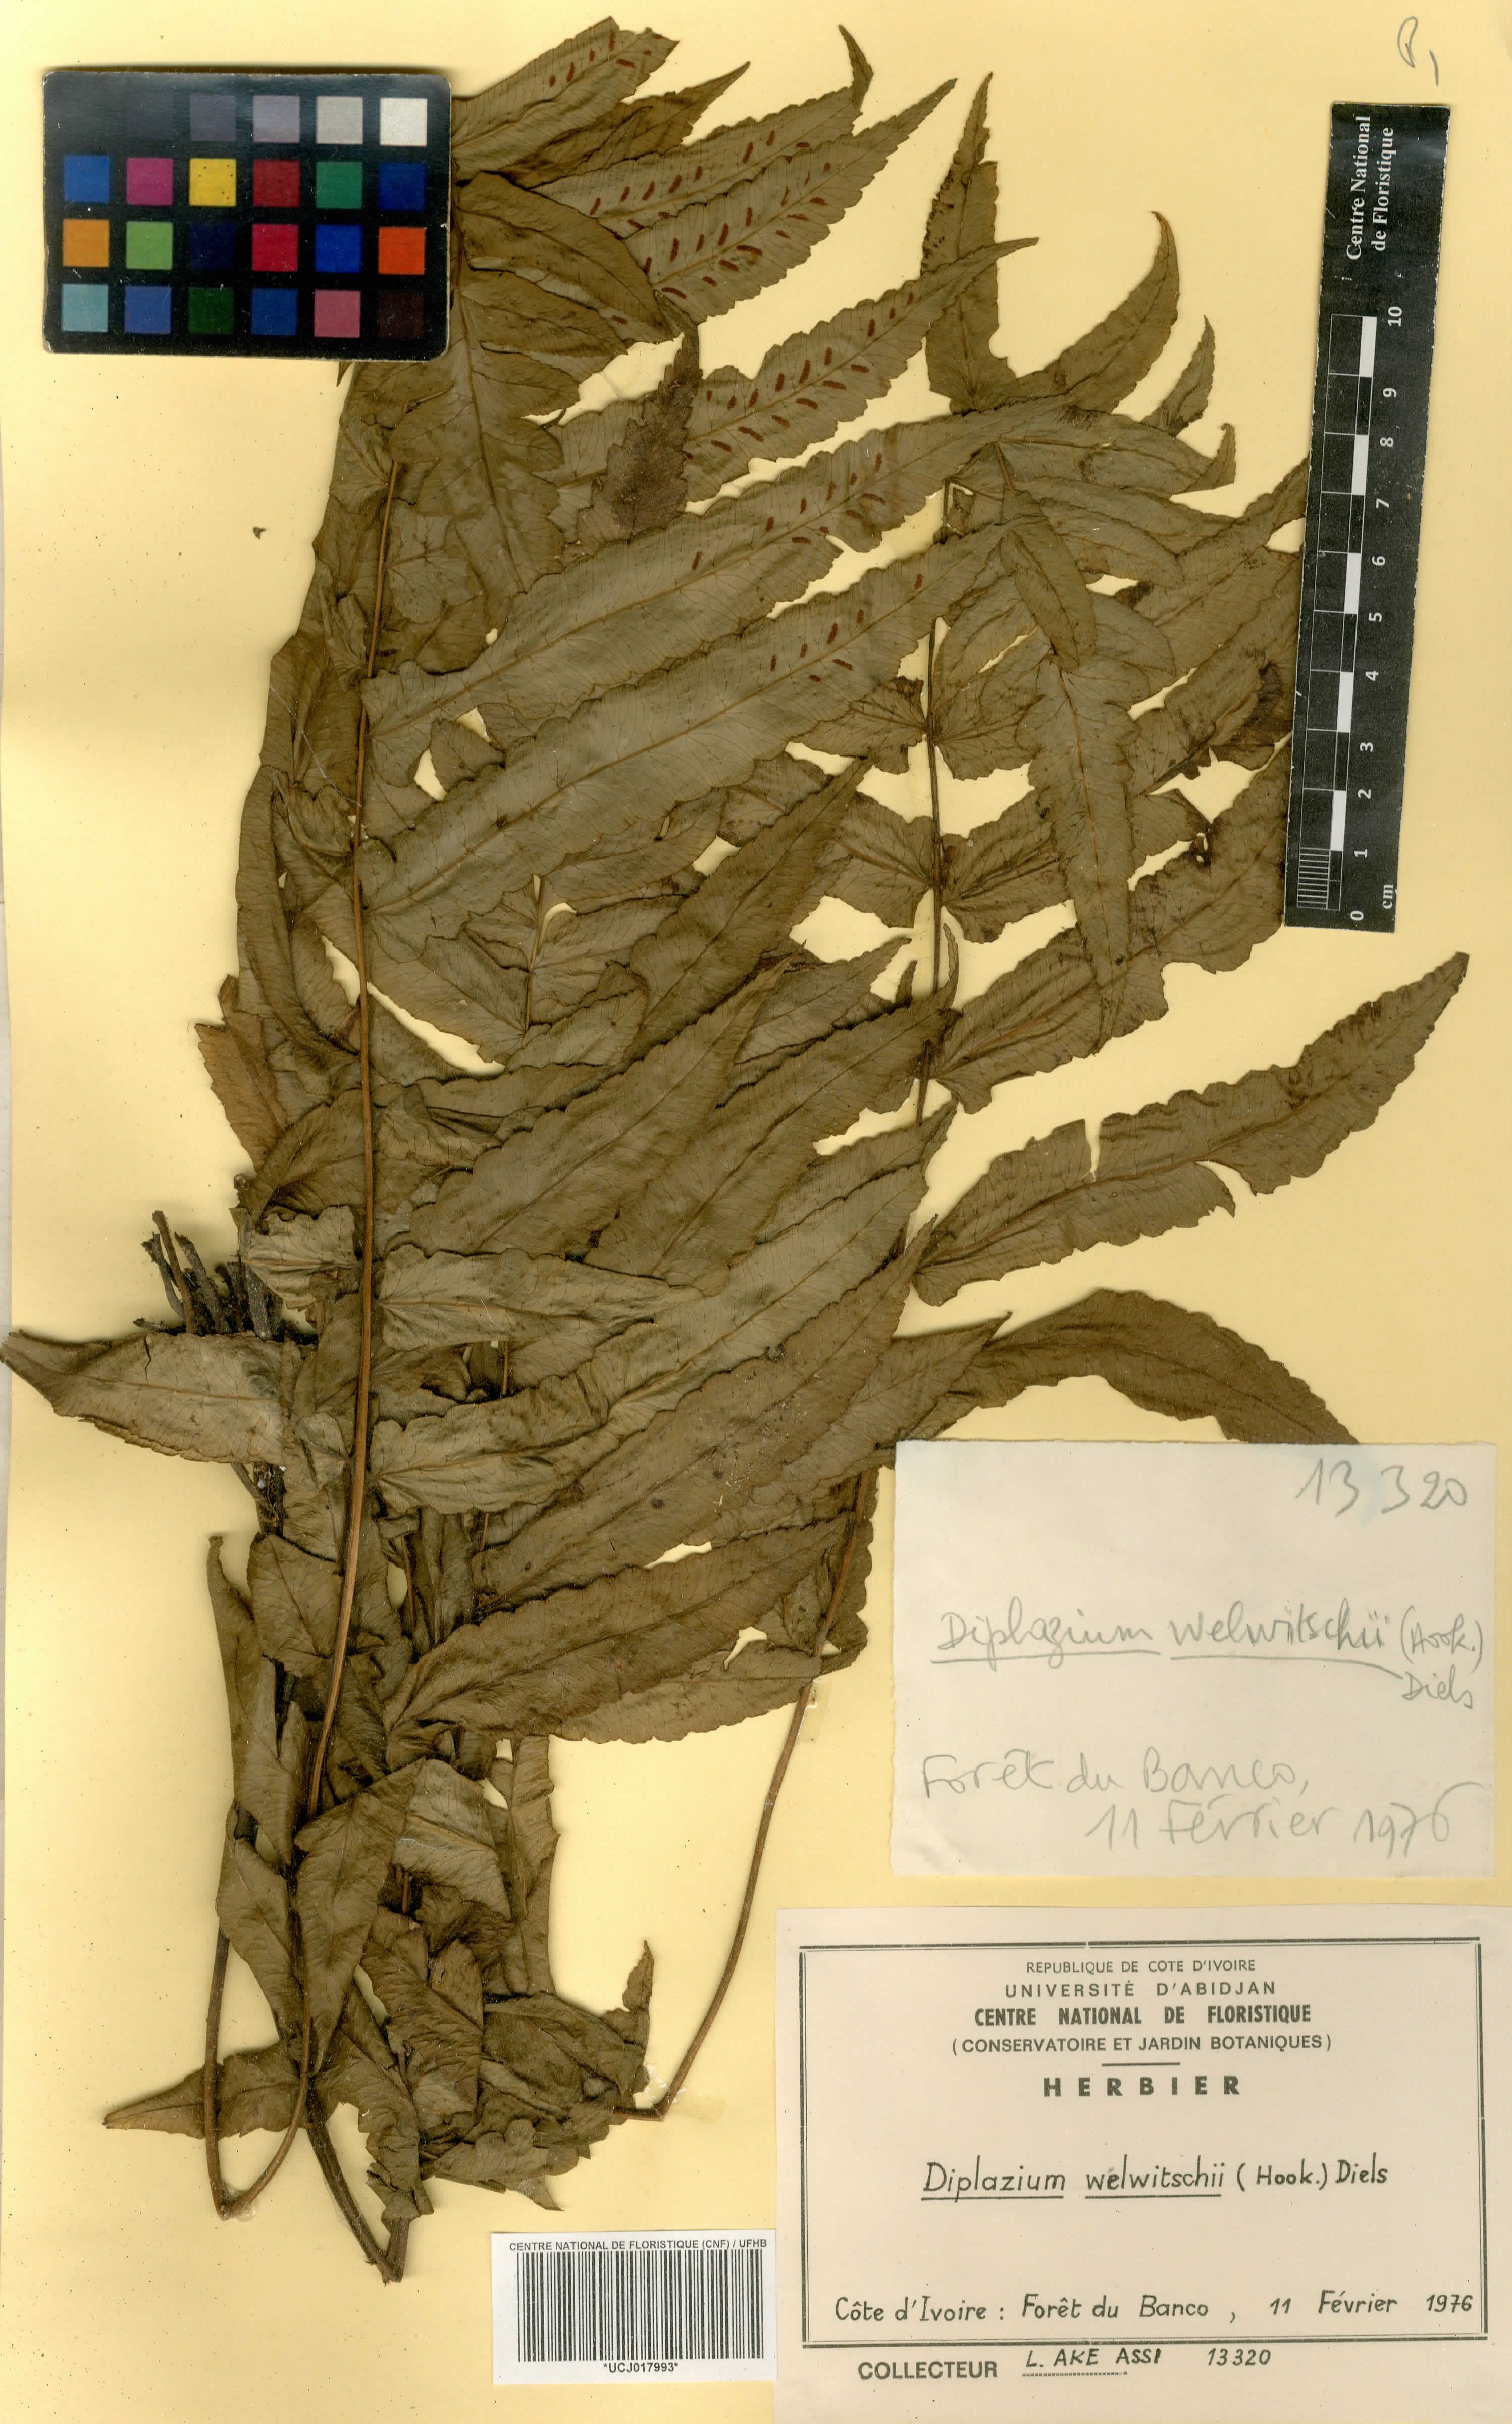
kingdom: Plantae
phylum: Tracheophyta
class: Polypodiopsida
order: Polypodiales
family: Athyriaceae
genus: Diplazium
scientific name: Diplazium welwitschii
